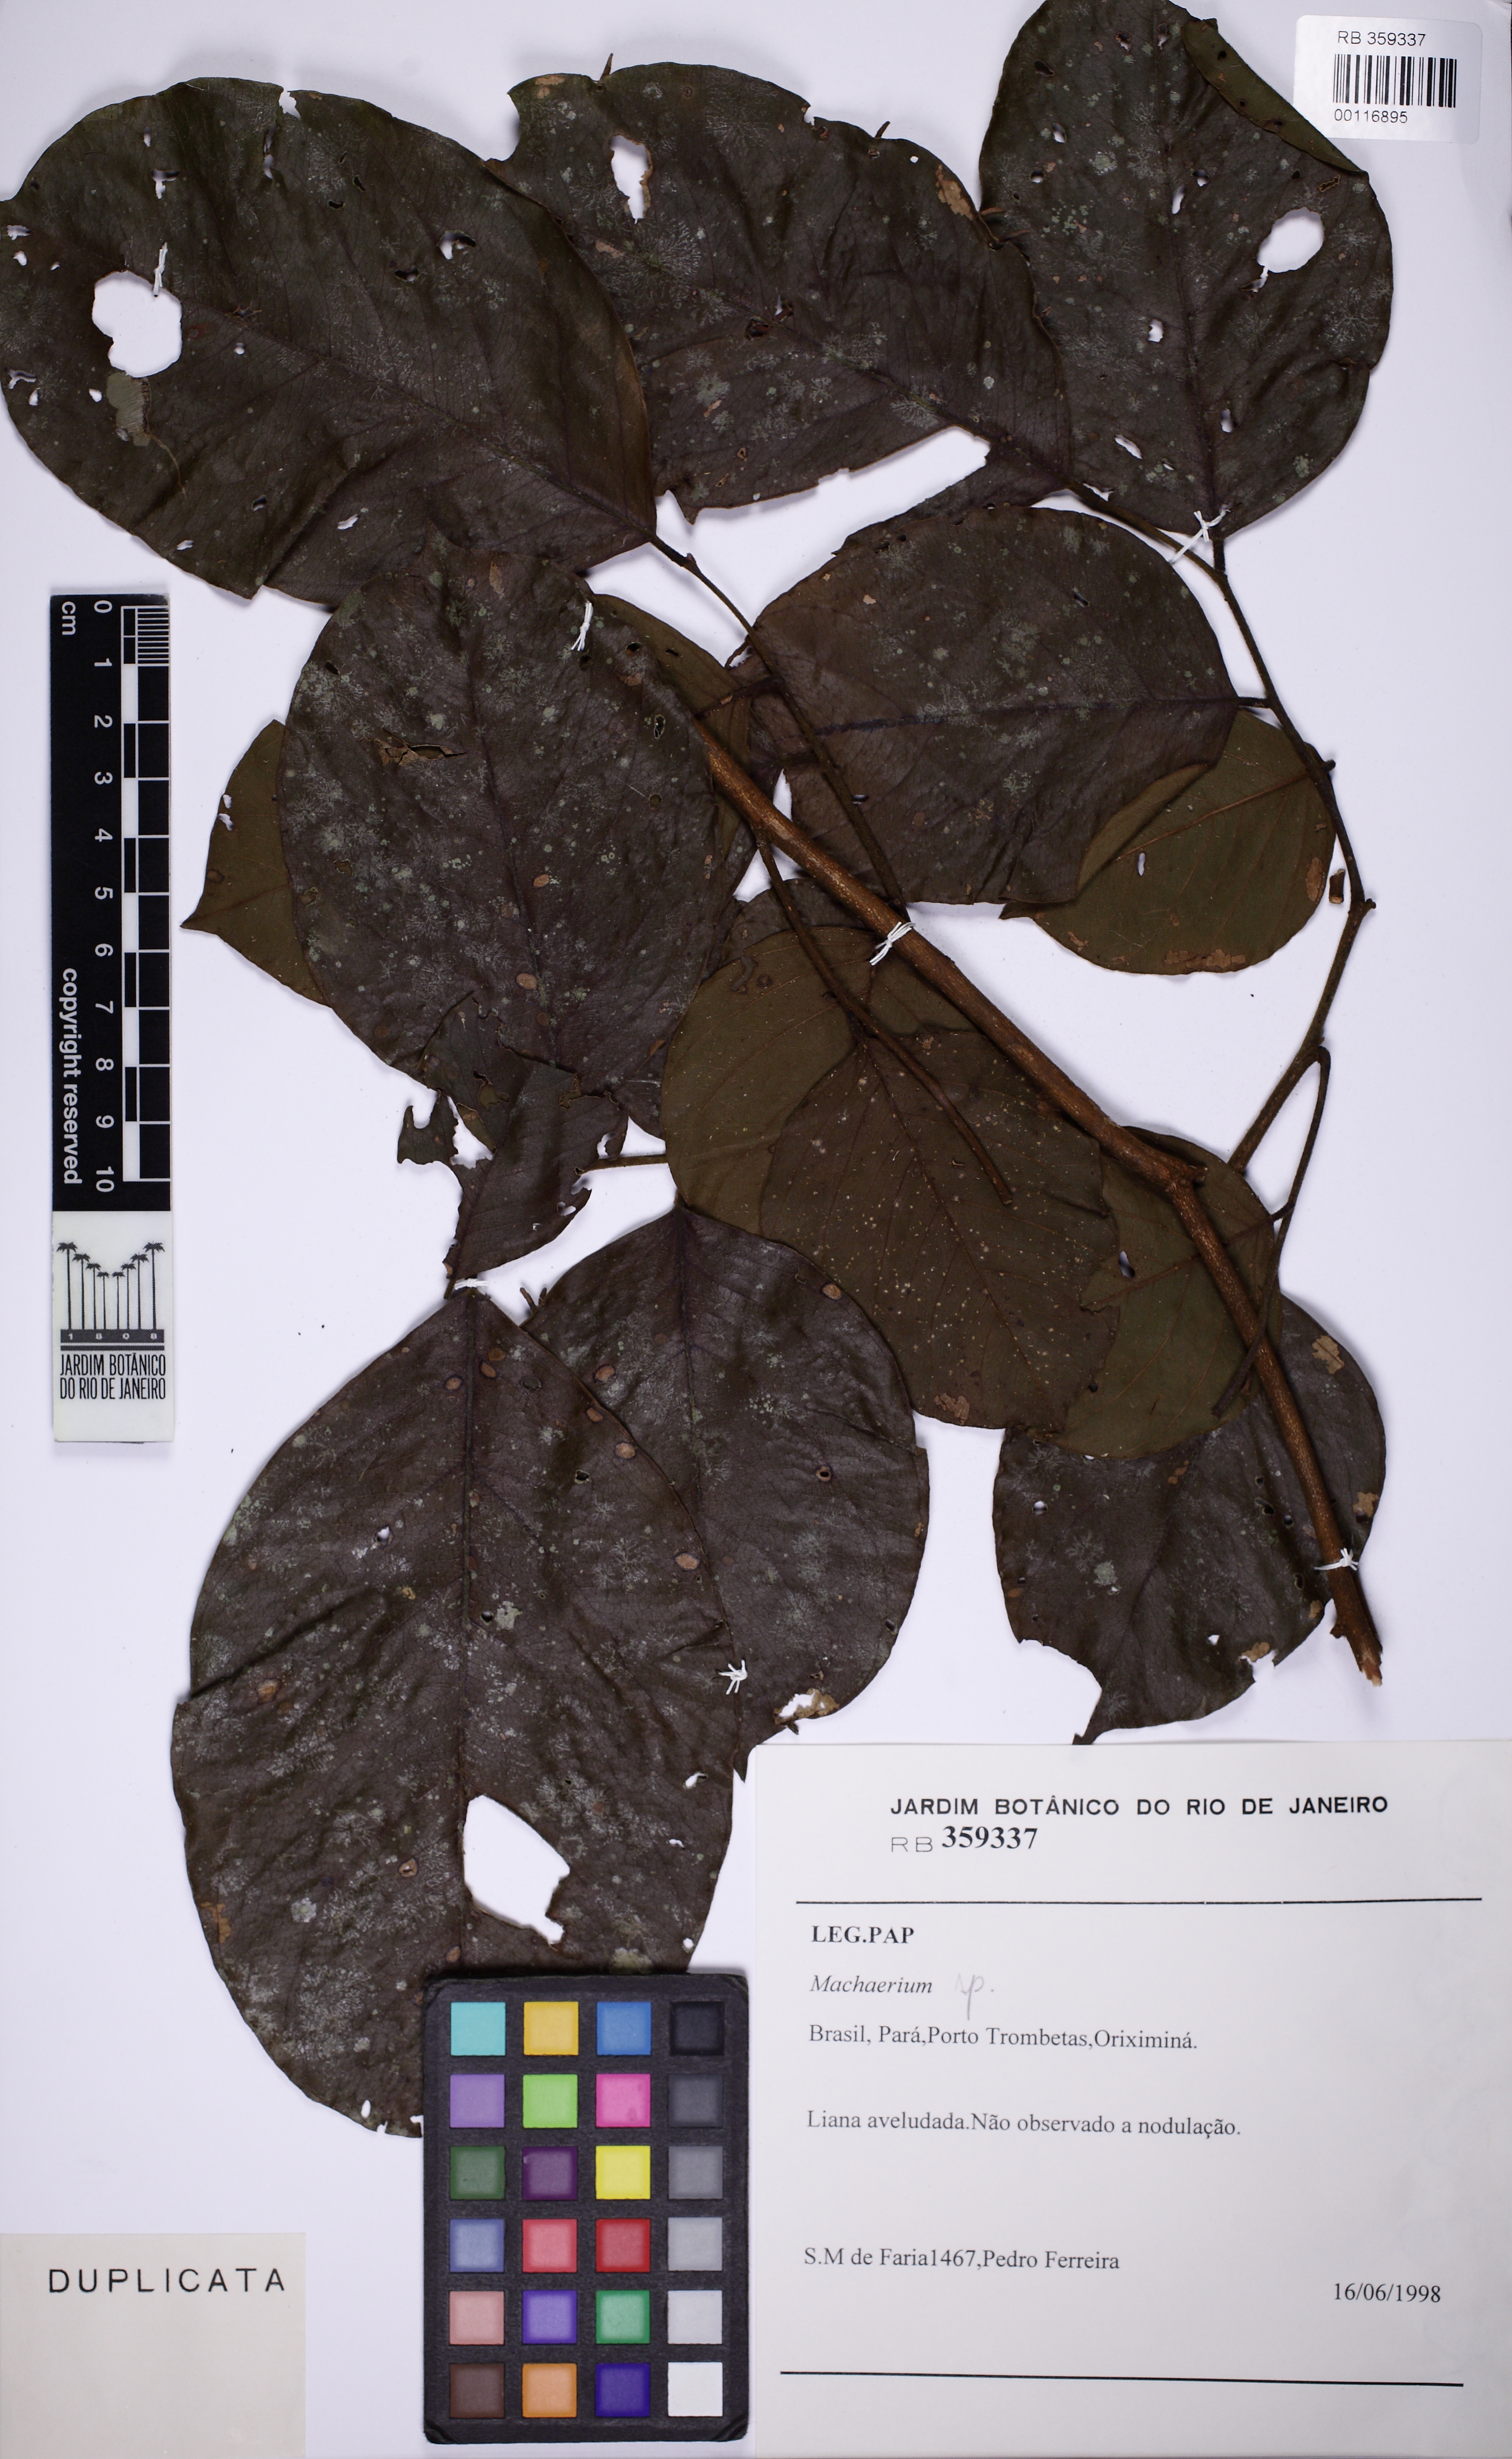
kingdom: Plantae
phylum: Tracheophyta
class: Magnoliopsida
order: Fabales
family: Fabaceae
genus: Dalbergia
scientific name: Dalbergia riedelii
